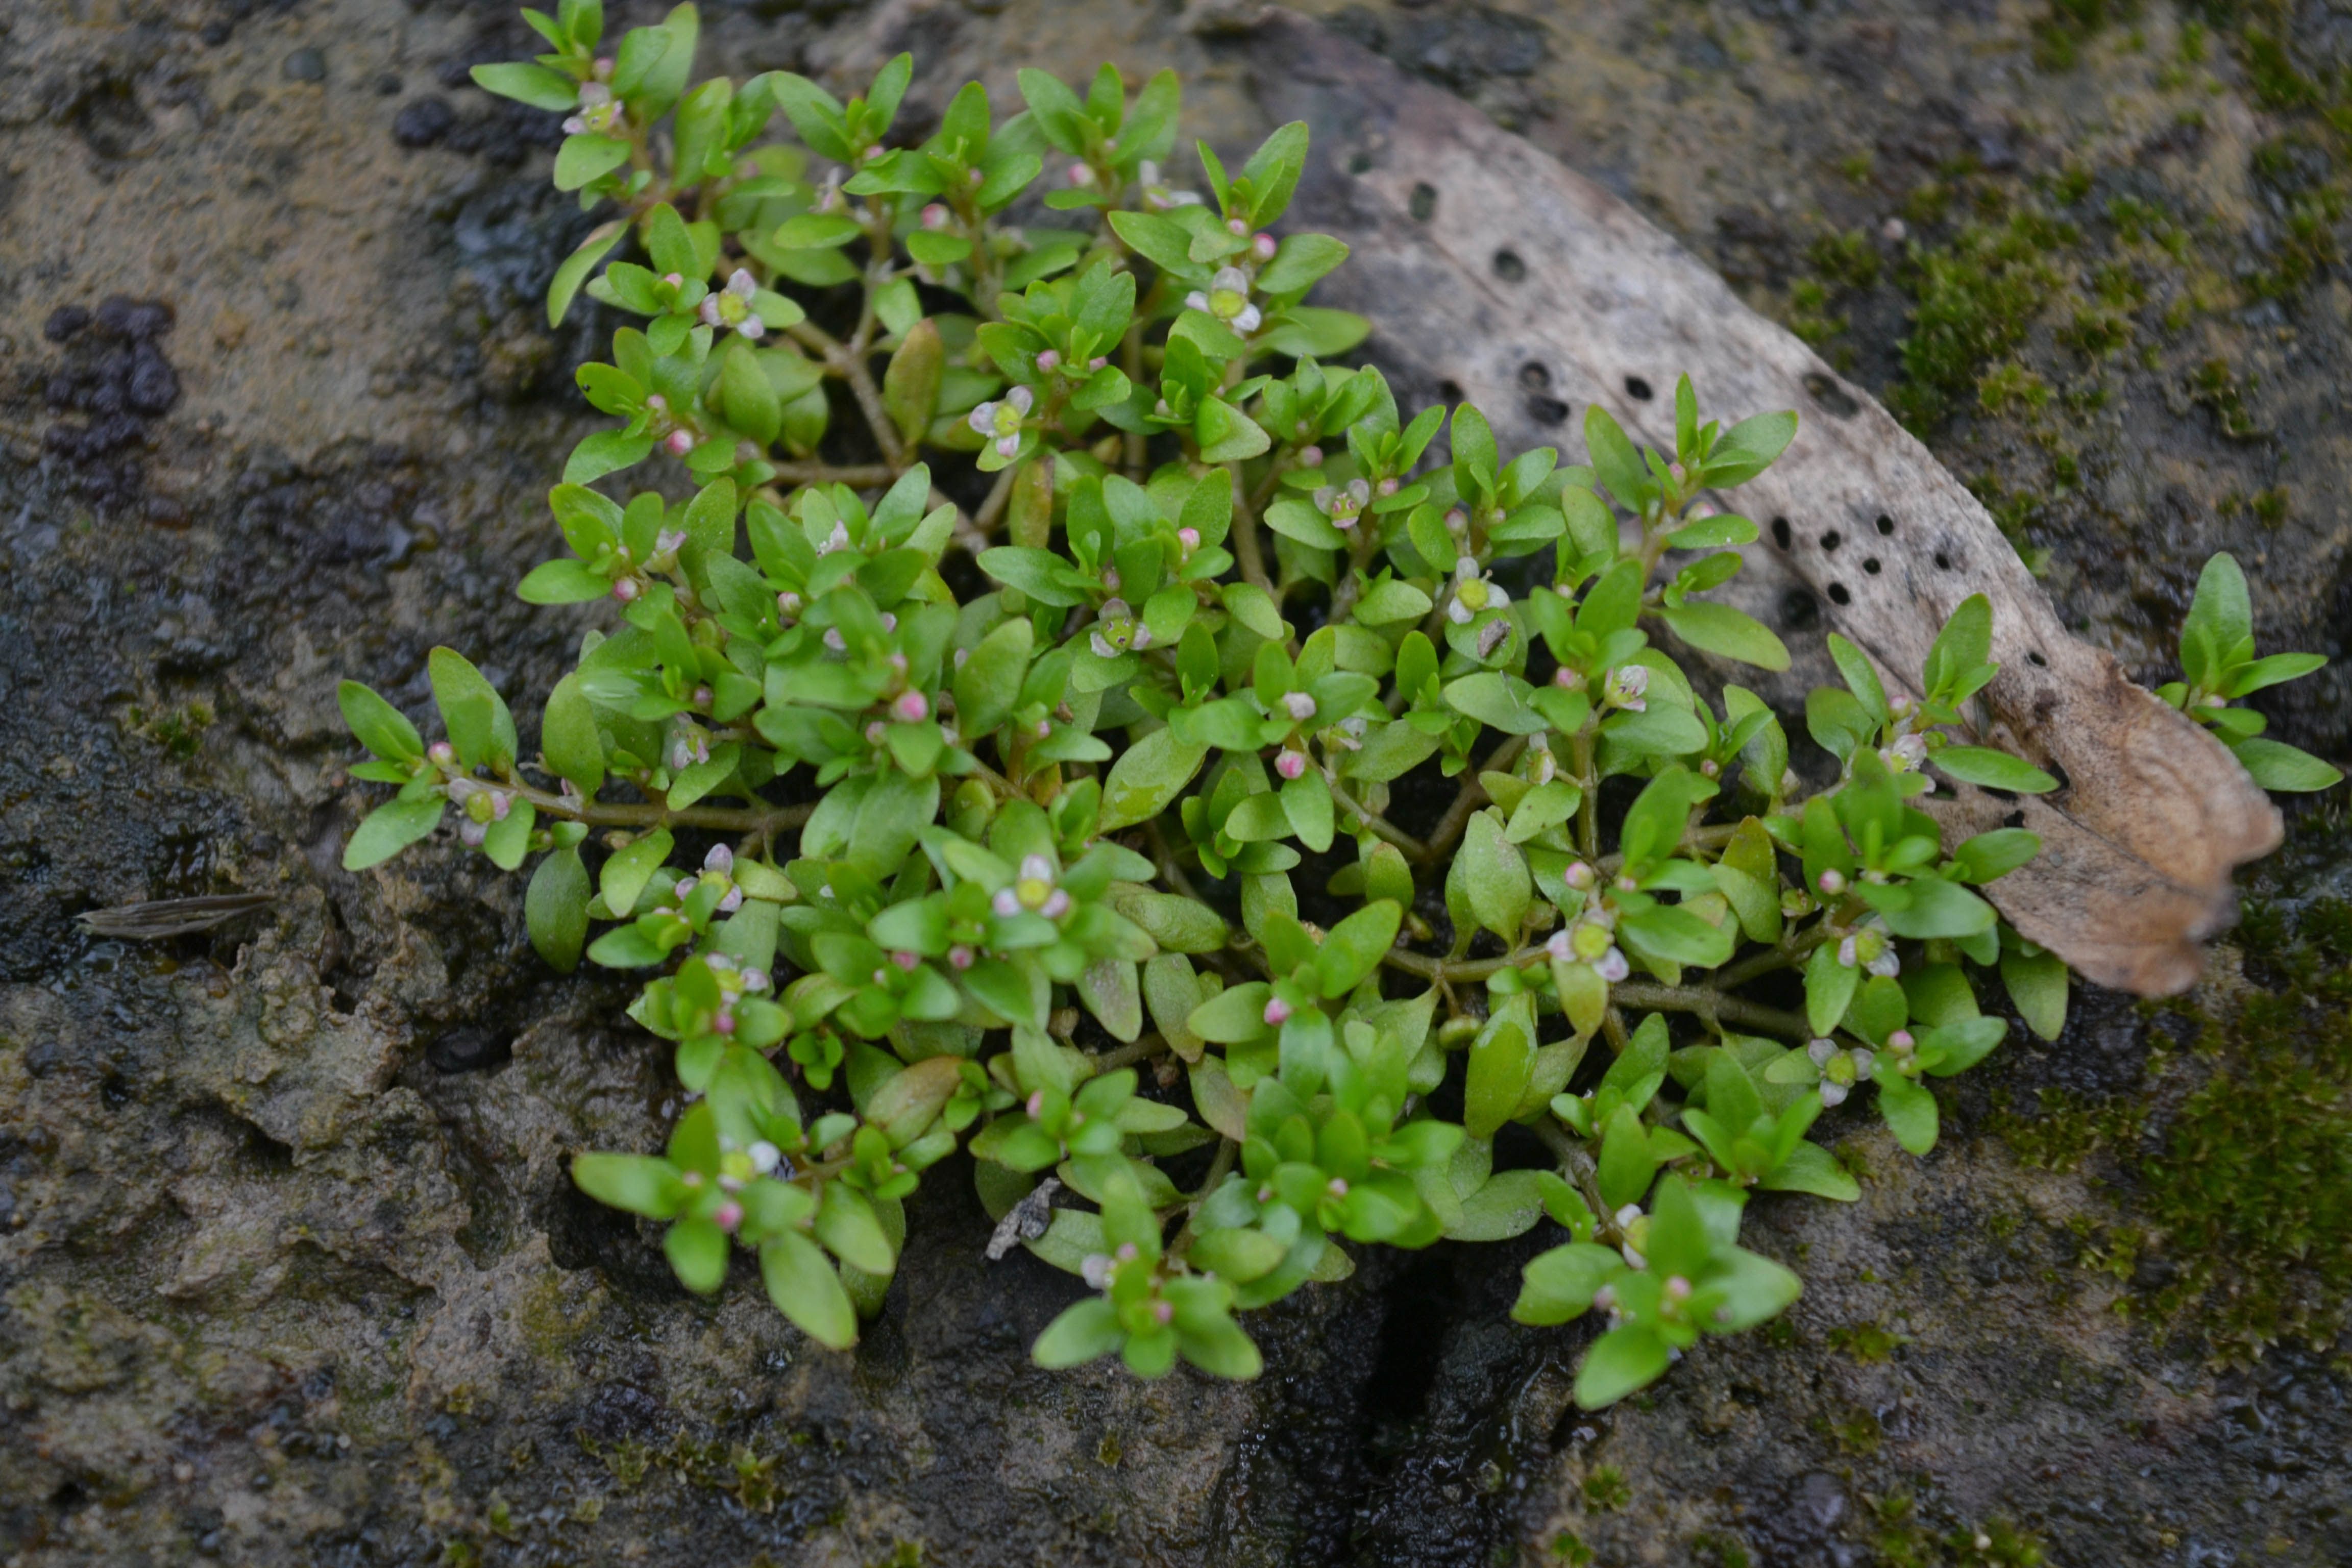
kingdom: Plantae
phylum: Tracheophyta
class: Magnoliopsida
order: Malpighiales
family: Elatinaceae
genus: Elatine
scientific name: Elatine triandra
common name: Three-stamened waterwort
